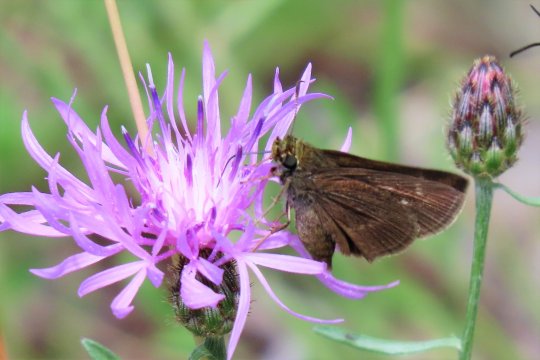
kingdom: Animalia
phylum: Arthropoda
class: Insecta
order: Lepidoptera
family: Hesperiidae
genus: Euphyes
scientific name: Euphyes vestris
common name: Dun Skipper
